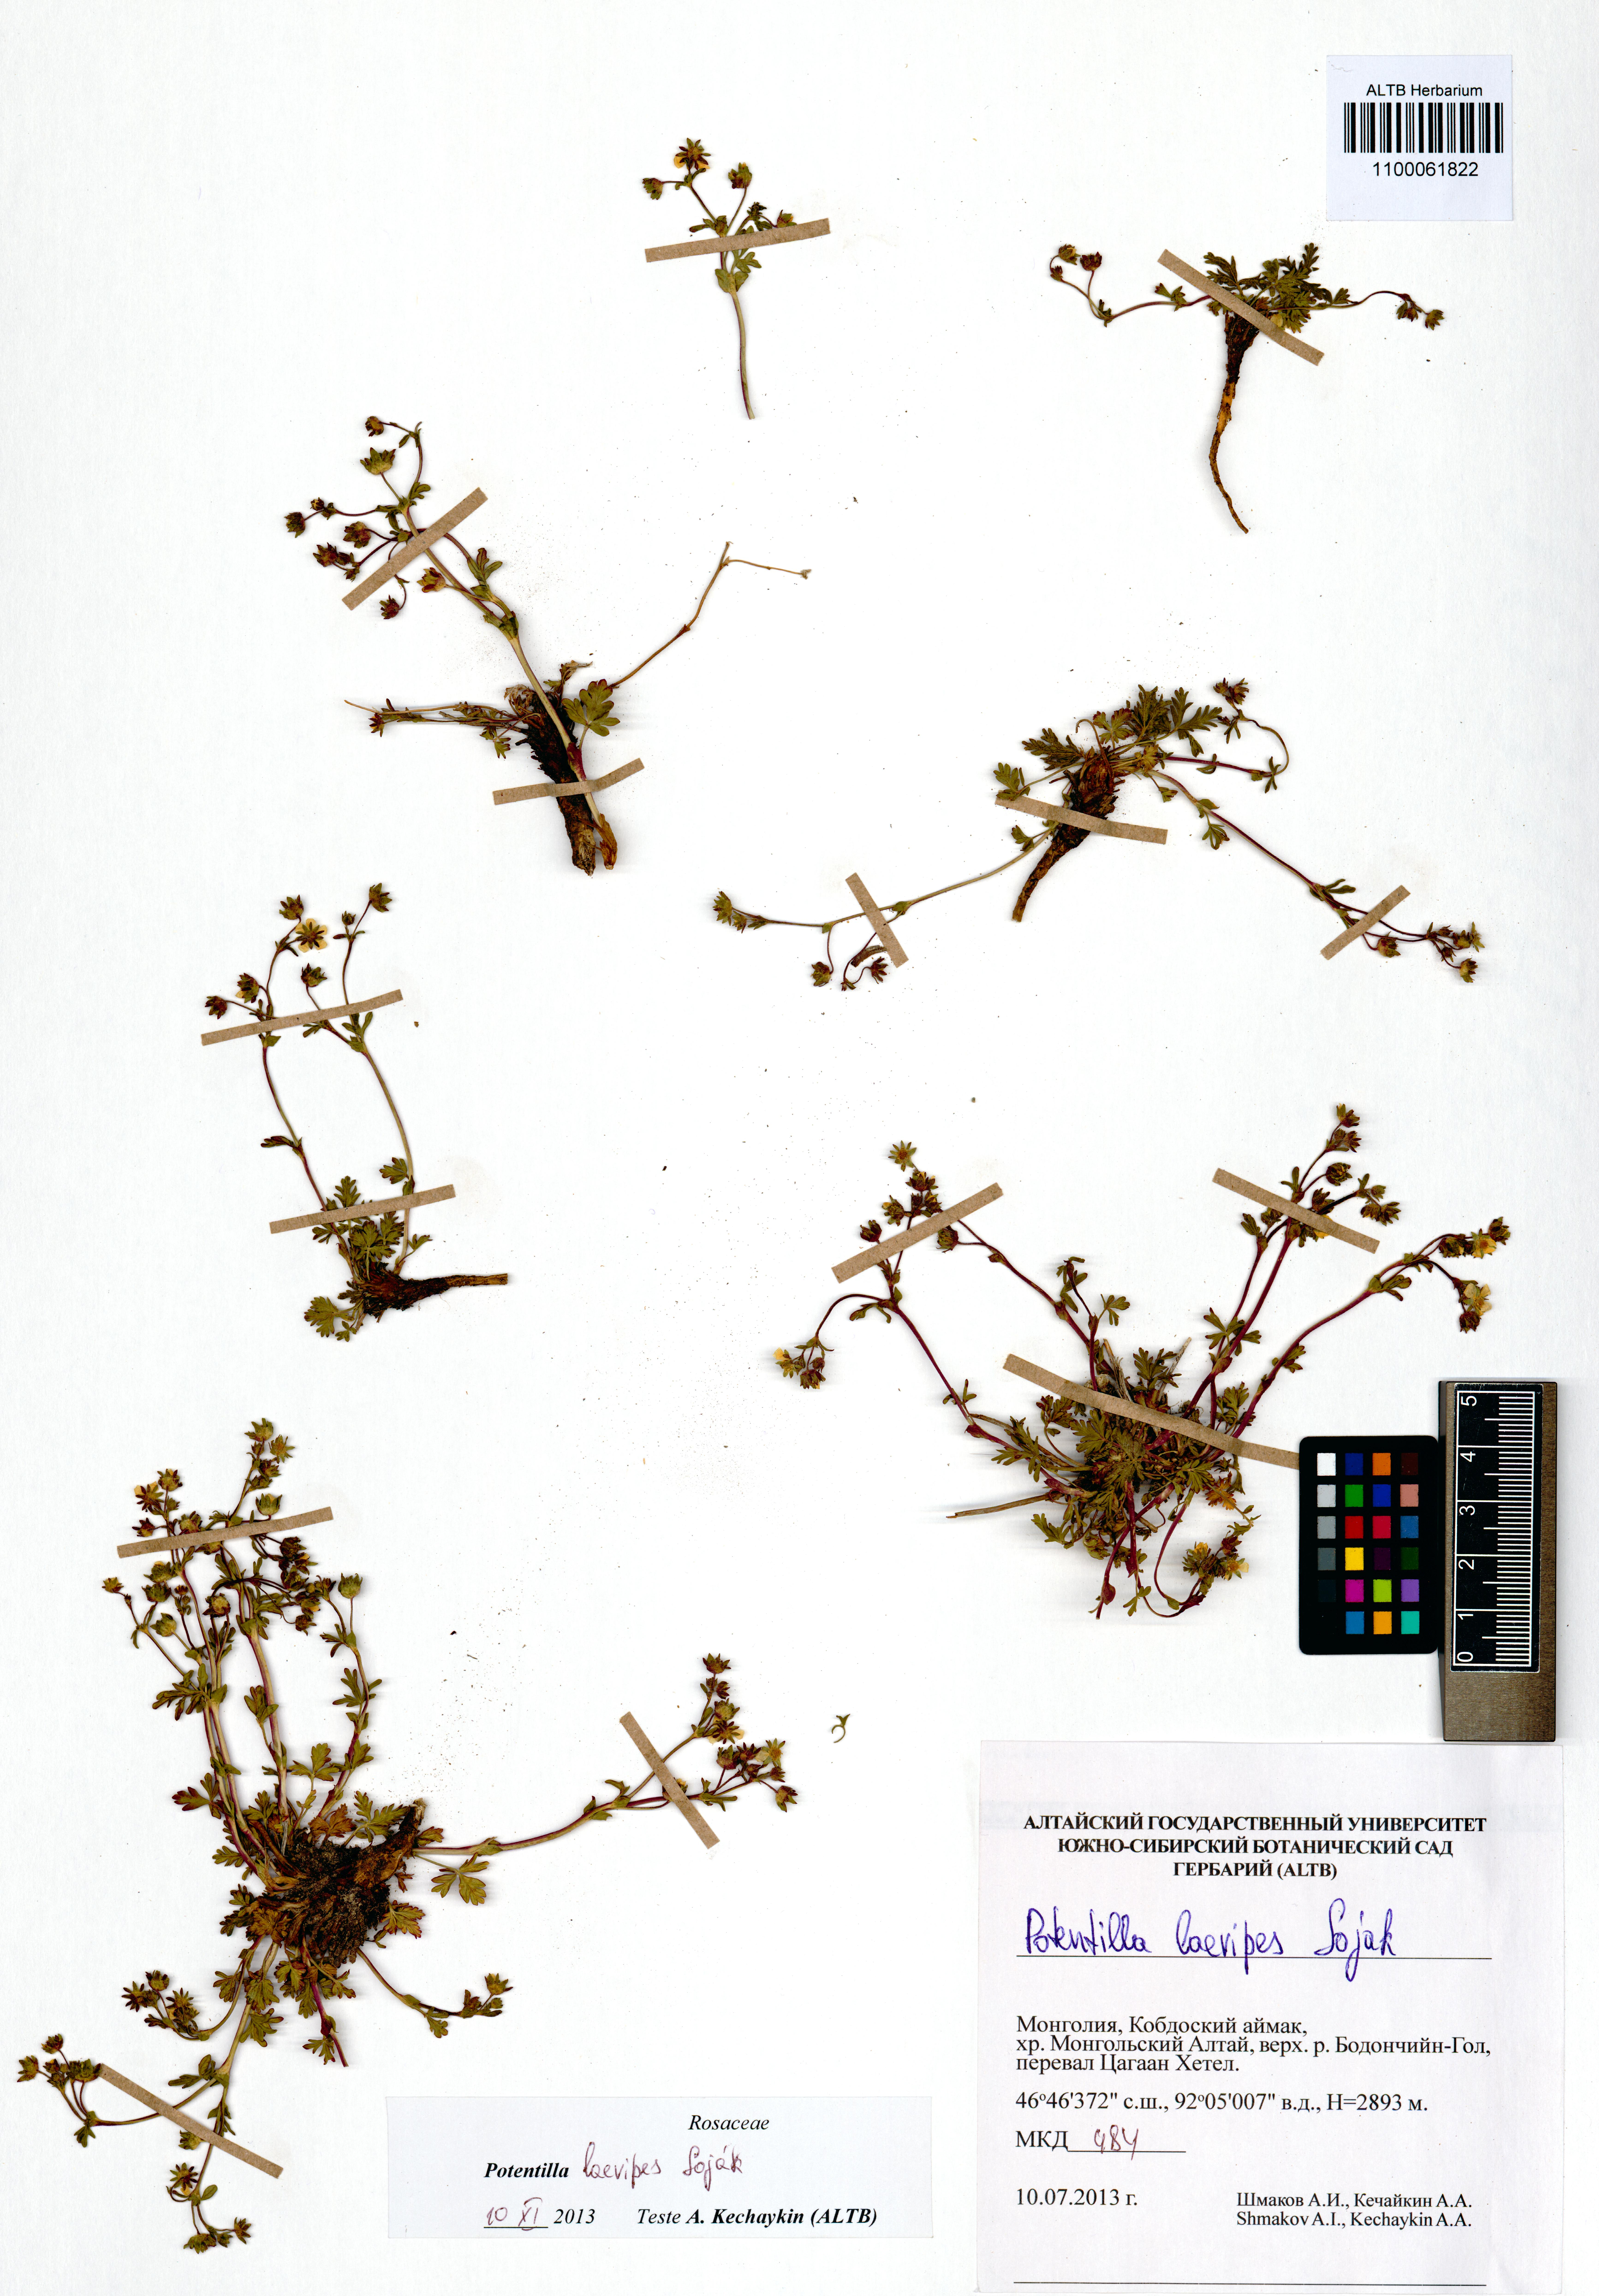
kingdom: Plantae
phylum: Tracheophyta
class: Magnoliopsida
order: Rosales
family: Rosaceae
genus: Potentilla
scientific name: Potentilla laevipes
